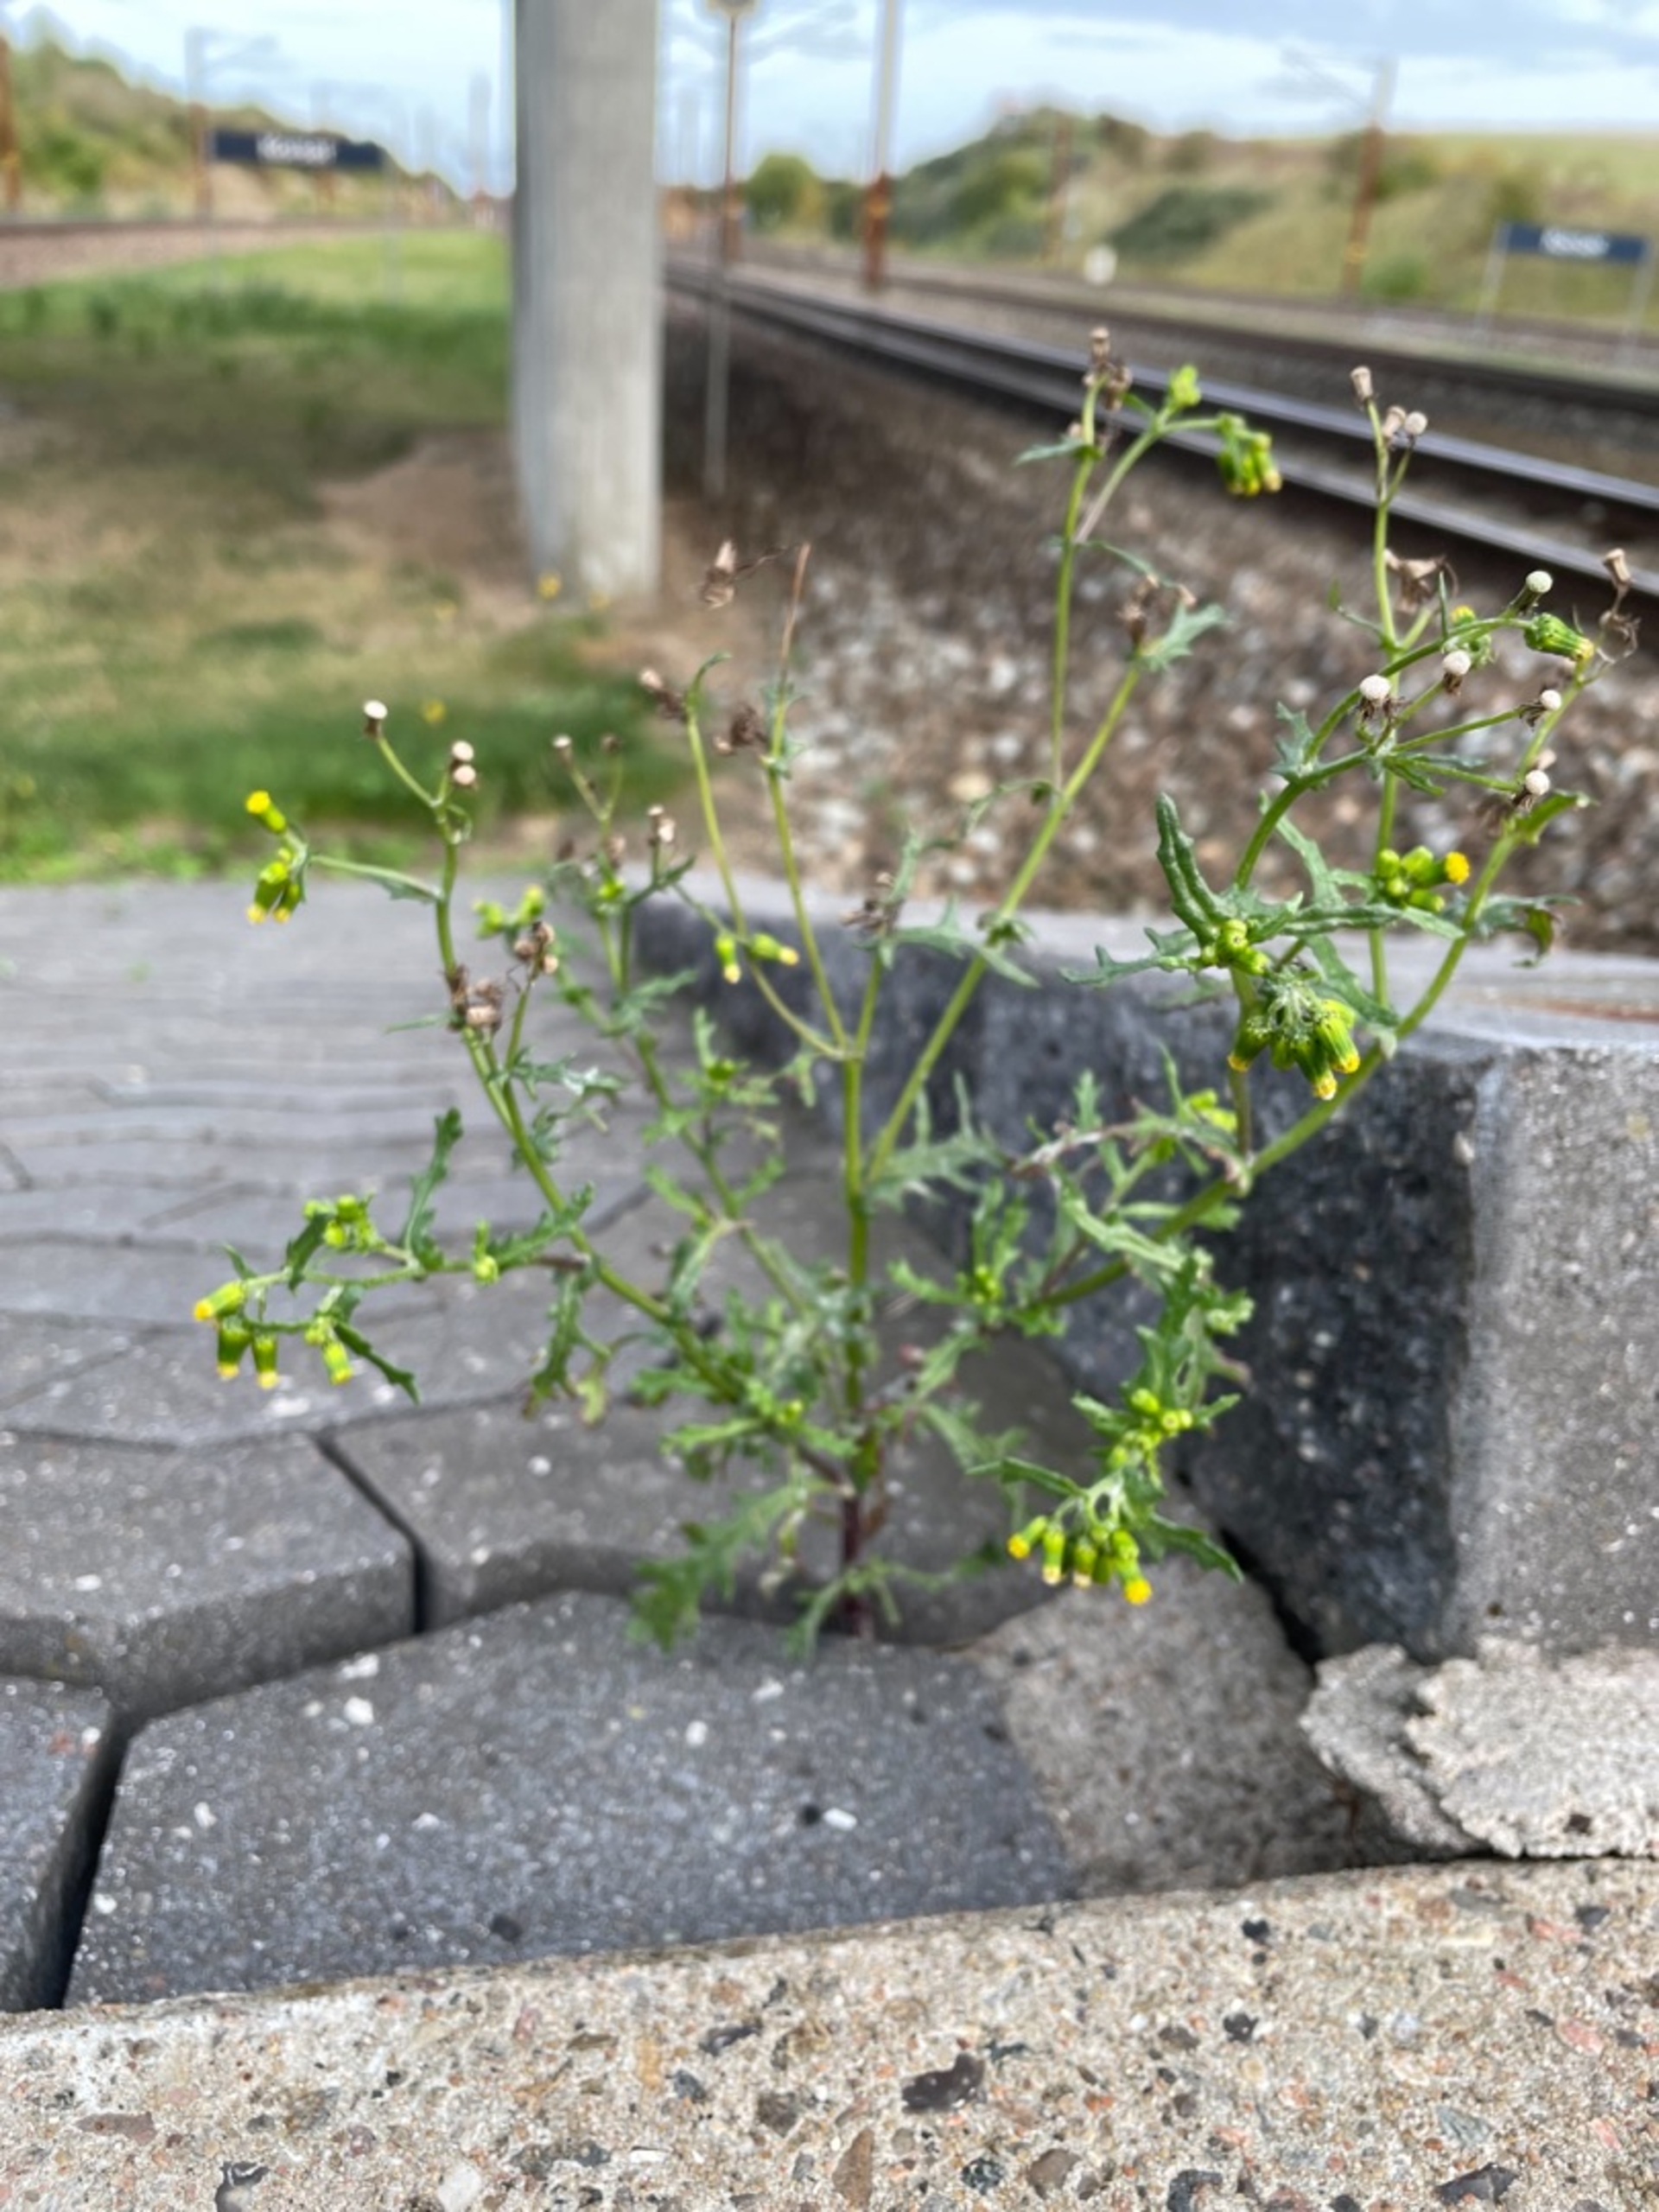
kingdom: Plantae
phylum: Tracheophyta
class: Magnoliopsida
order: Asterales
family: Asteraceae
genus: Senecio
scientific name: Senecio vulgaris
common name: Almindelig brandbæger
